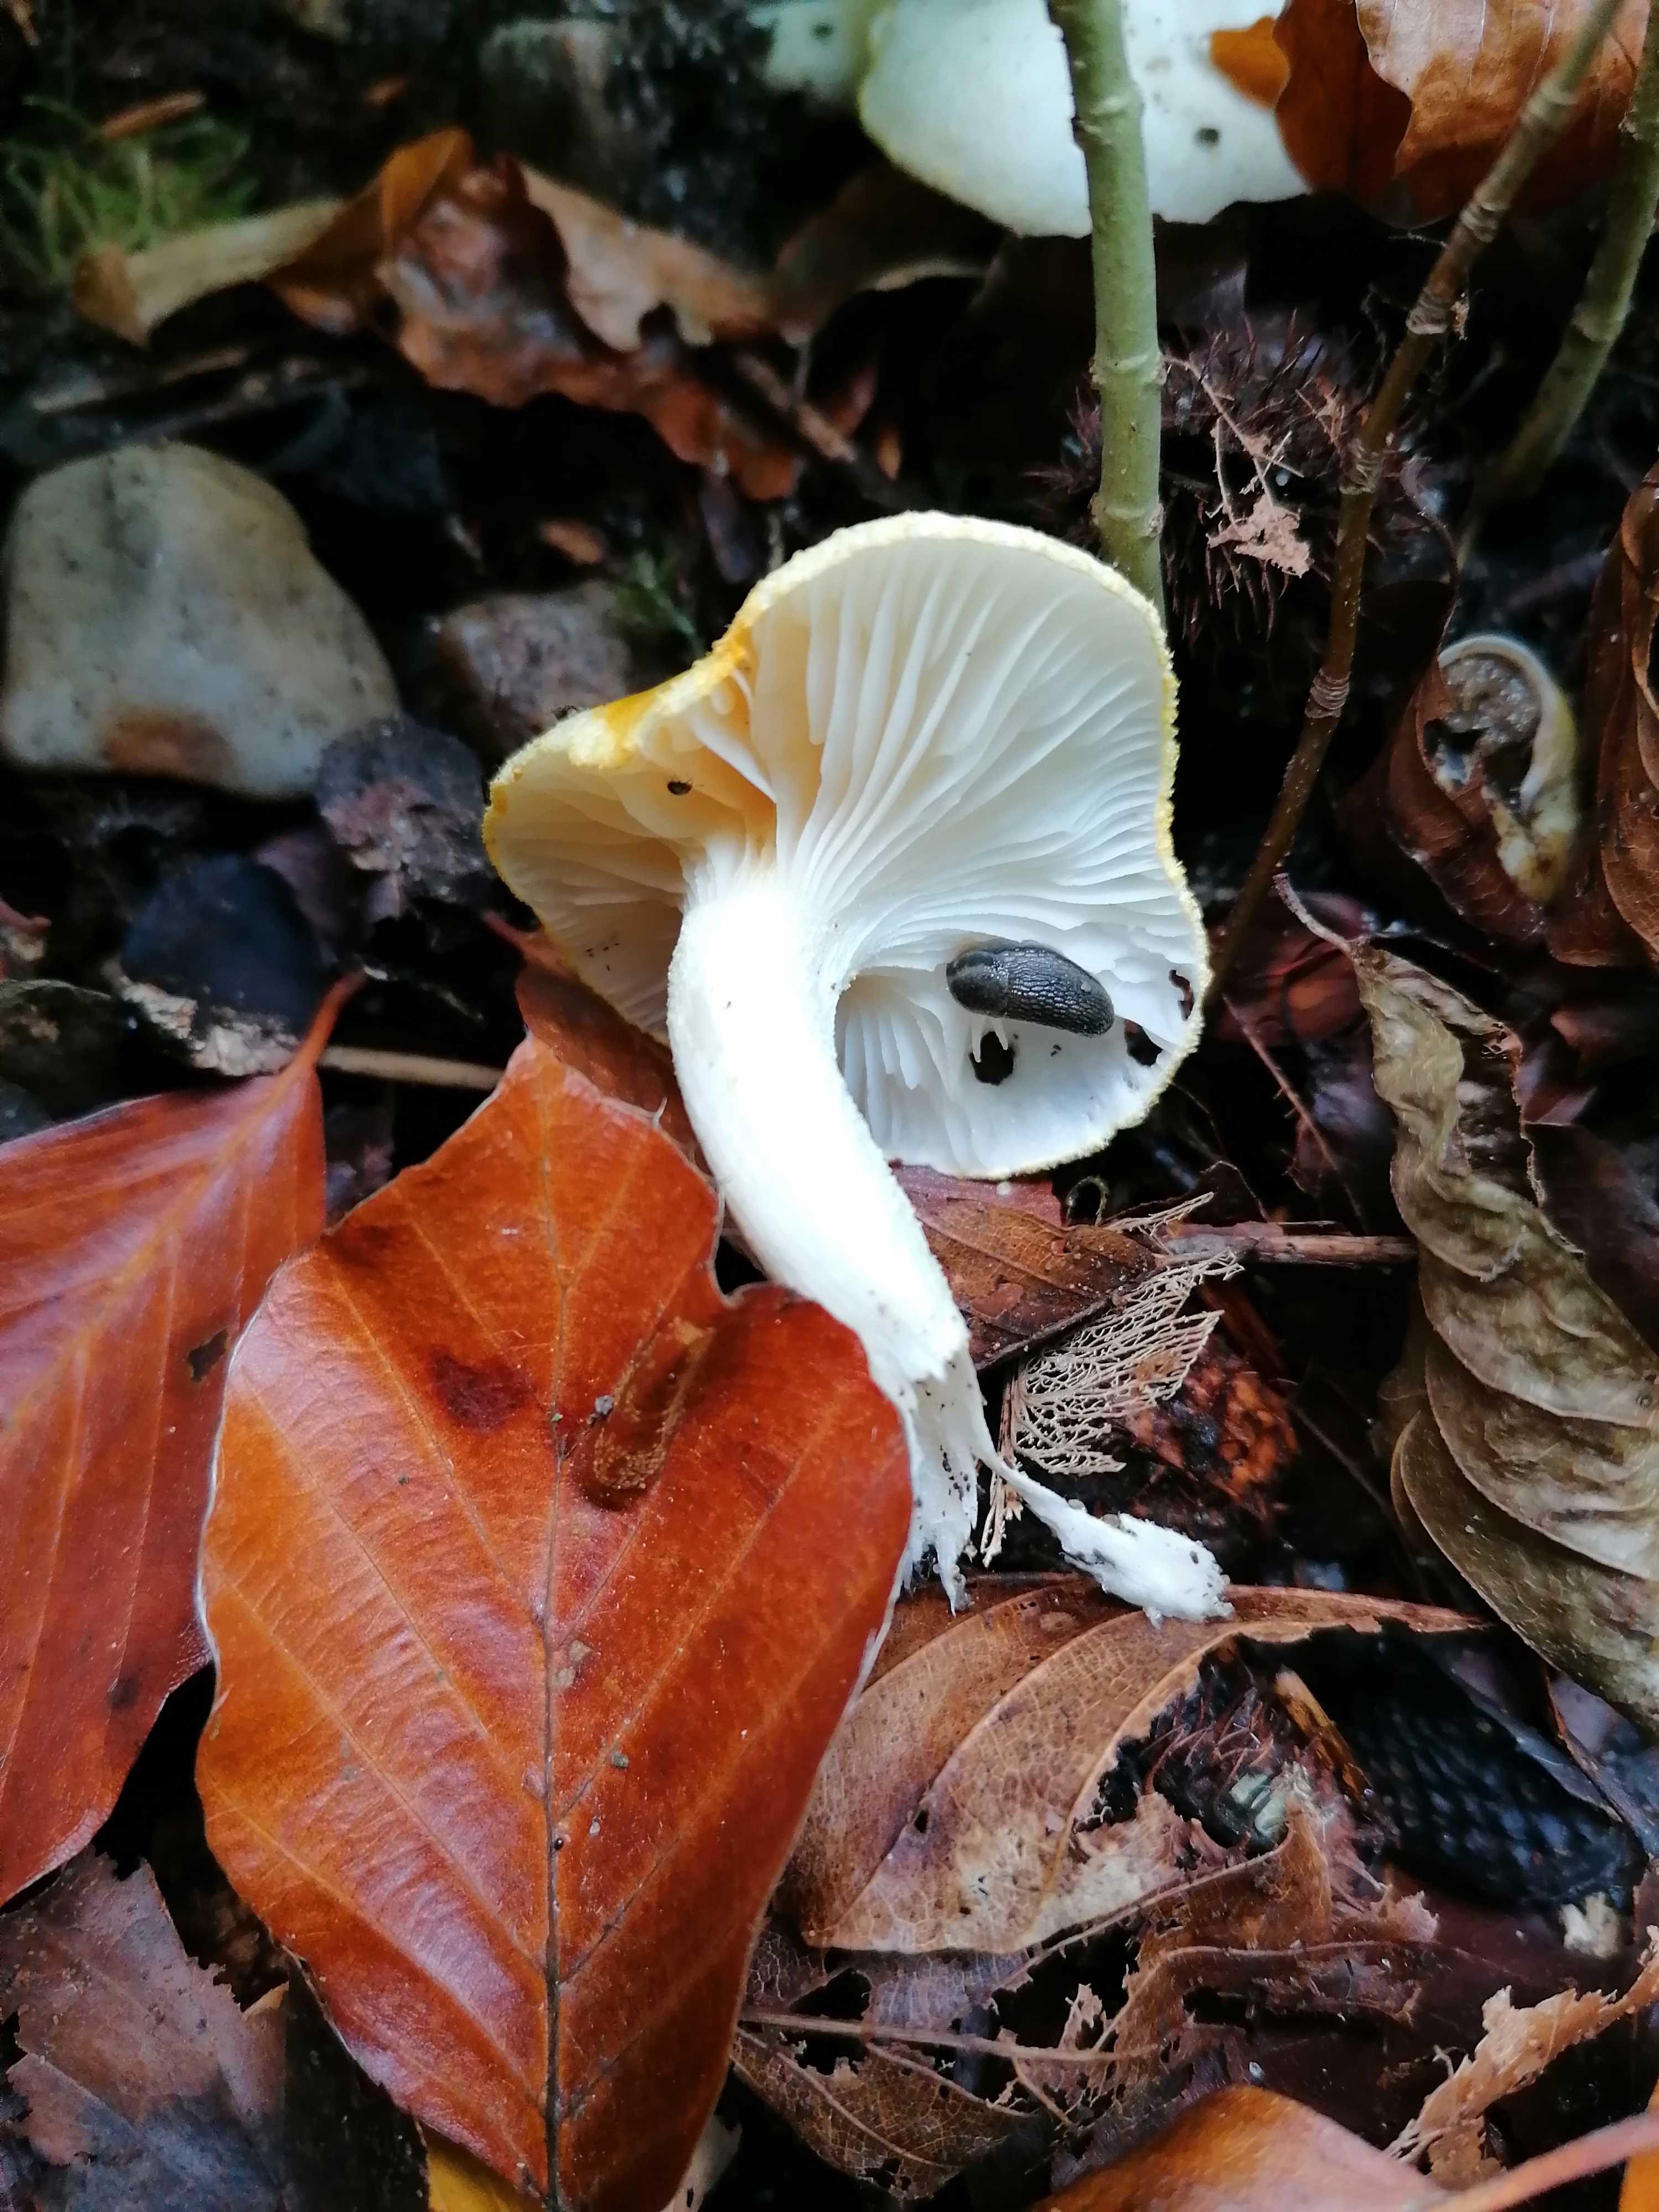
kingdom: Fungi
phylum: Basidiomycota
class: Agaricomycetes
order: Agaricales
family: Hygrophoraceae
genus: Hygrophorus
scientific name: Hygrophorus chrysodon
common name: gulfnugget sneglehat
